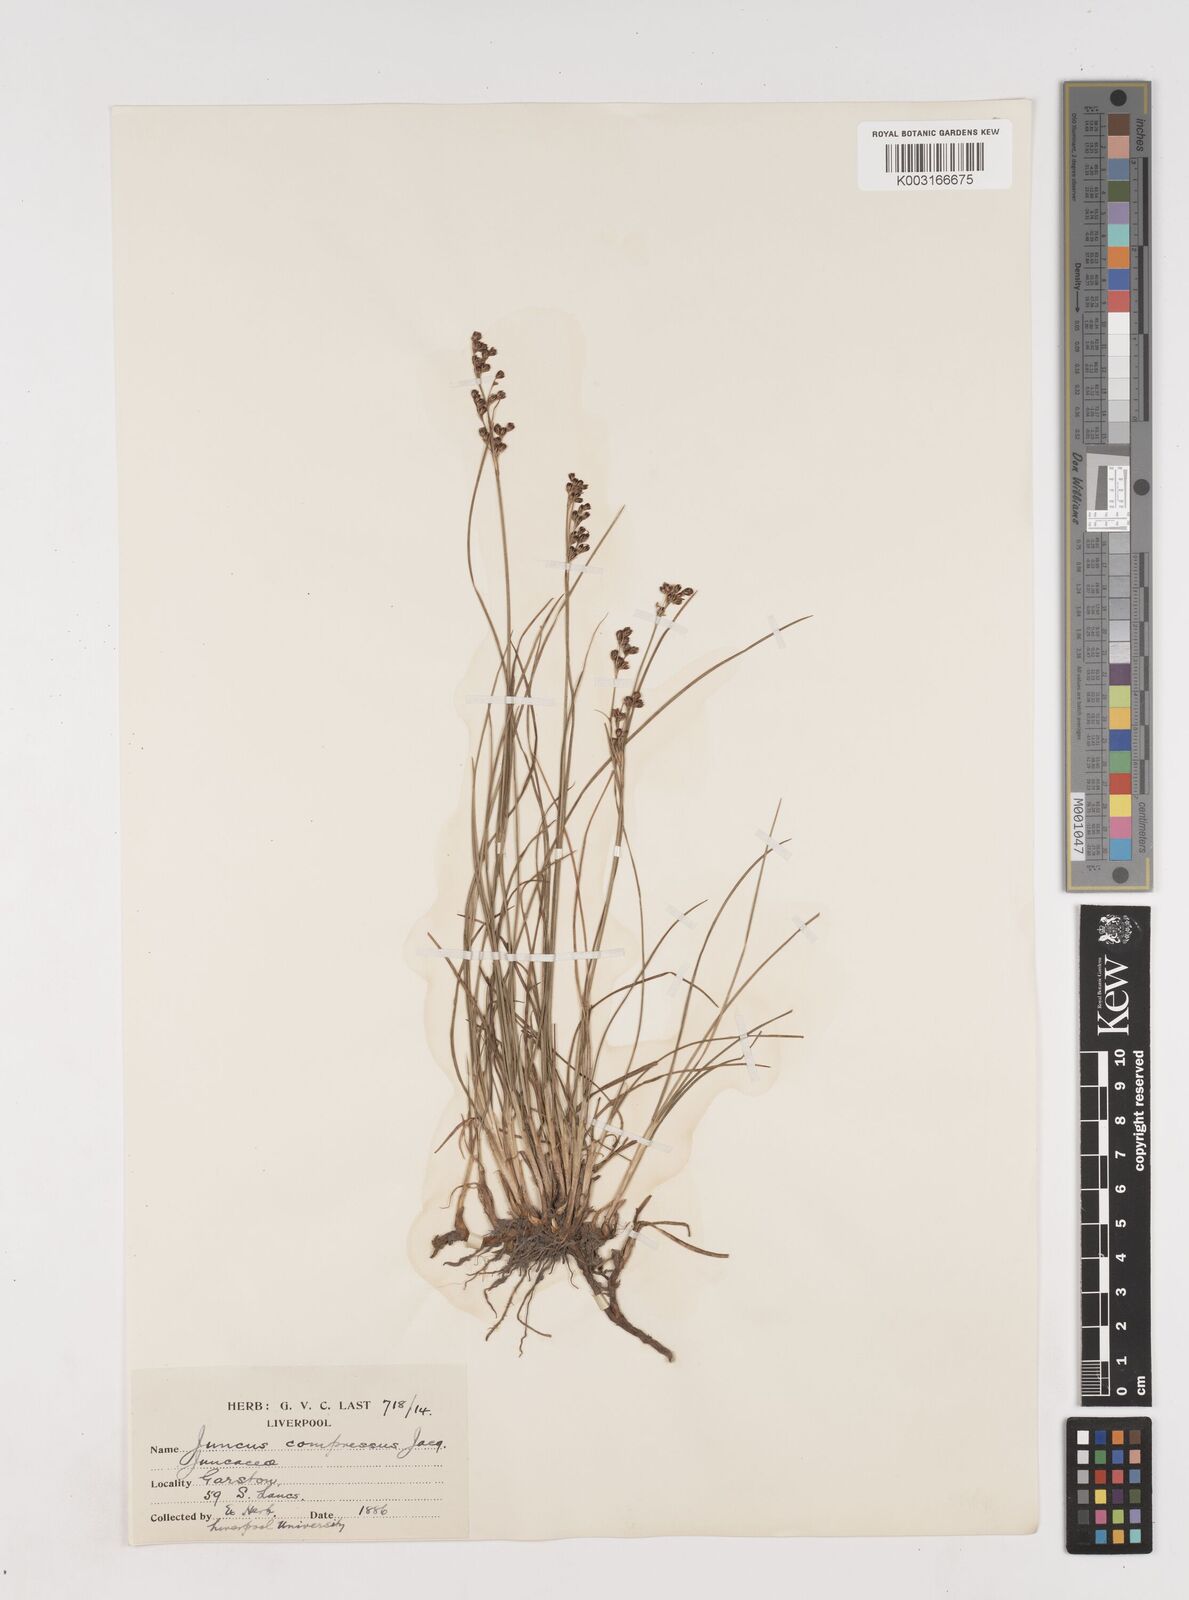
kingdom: Plantae
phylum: Tracheophyta
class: Liliopsida
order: Poales
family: Juncaceae
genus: Juncus
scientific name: Juncus compressus
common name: Round-fruited rush
